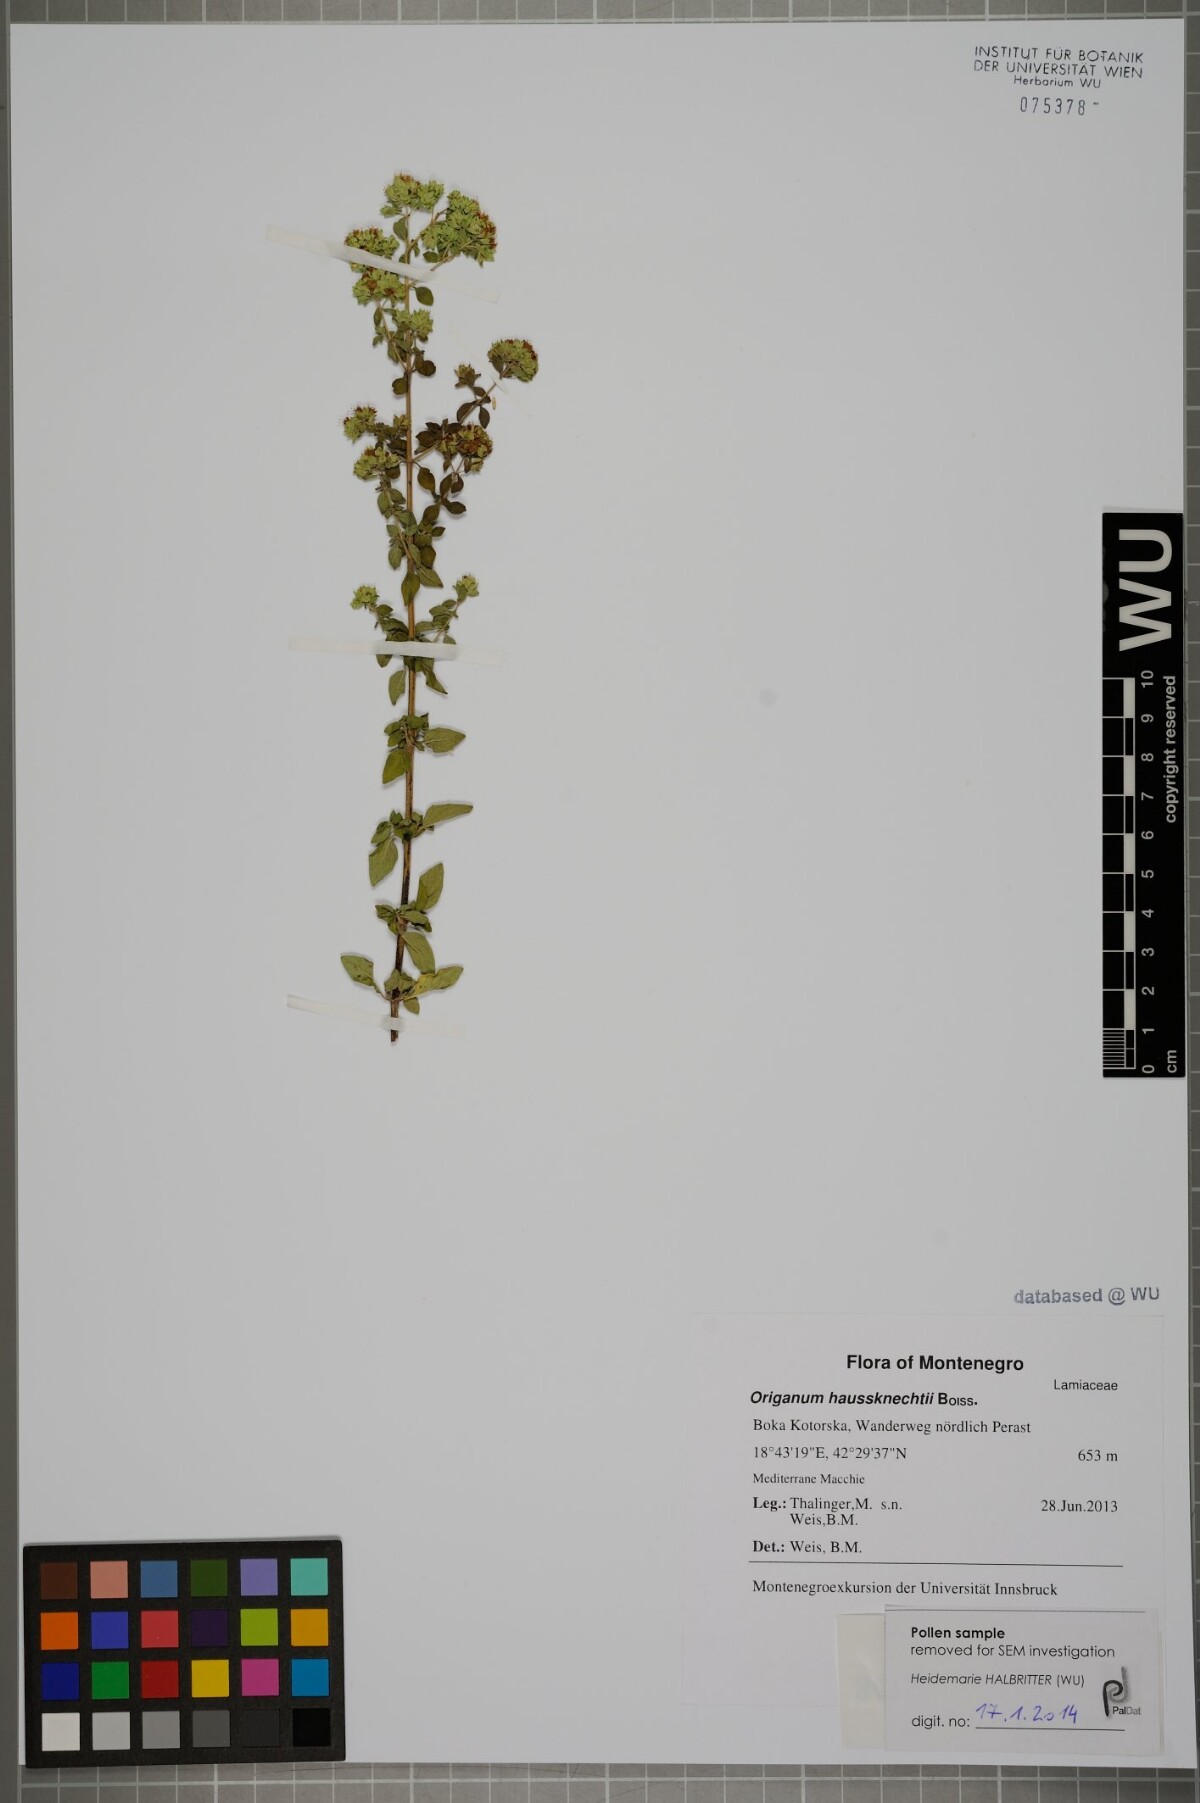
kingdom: Plantae
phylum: Tracheophyta
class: Magnoliopsida
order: Lamiales
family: Lamiaceae
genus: Origanum
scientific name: Origanum vulgare
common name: Wild marjoram
